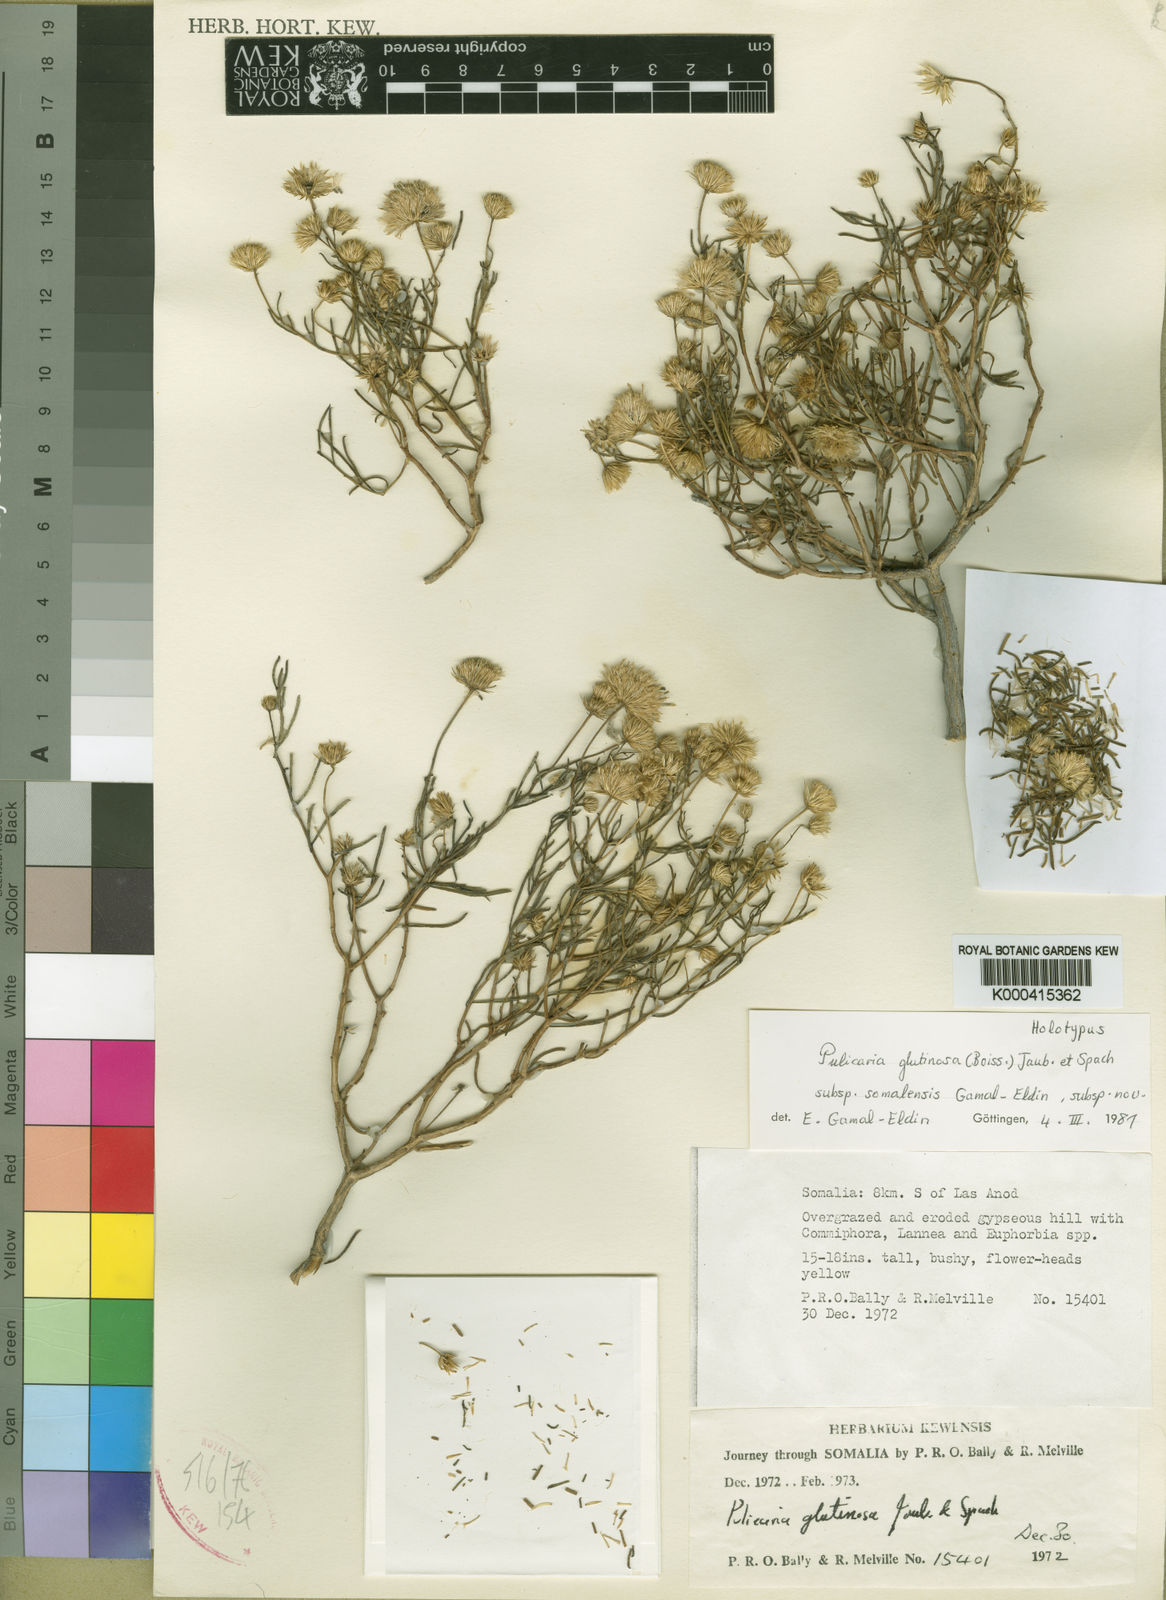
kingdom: Plantae
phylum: Tracheophyta
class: Magnoliopsida
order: Asterales
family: Asteraceae
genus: Pulicaria
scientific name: Pulicaria glutinosa
